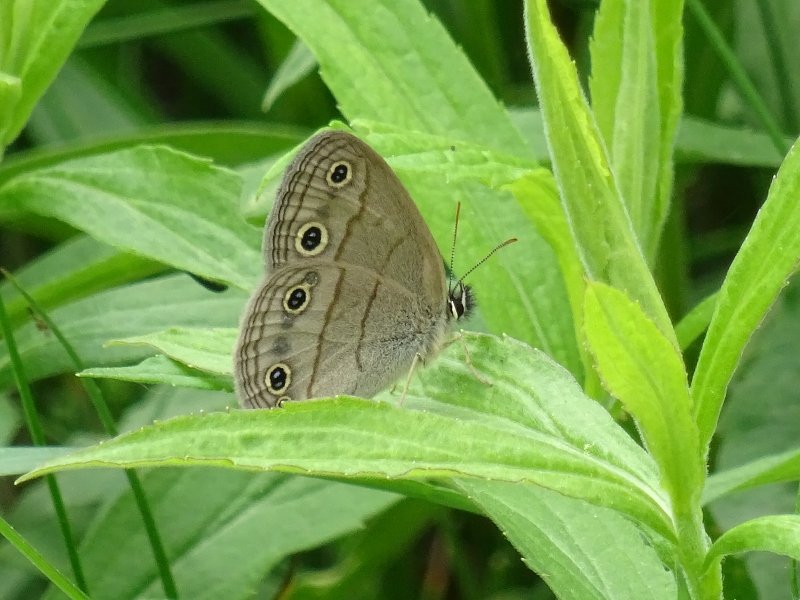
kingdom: Animalia
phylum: Arthropoda
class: Insecta
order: Lepidoptera
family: Nymphalidae
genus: Euptychia
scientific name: Euptychia cymela
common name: Little Wood Satyr
